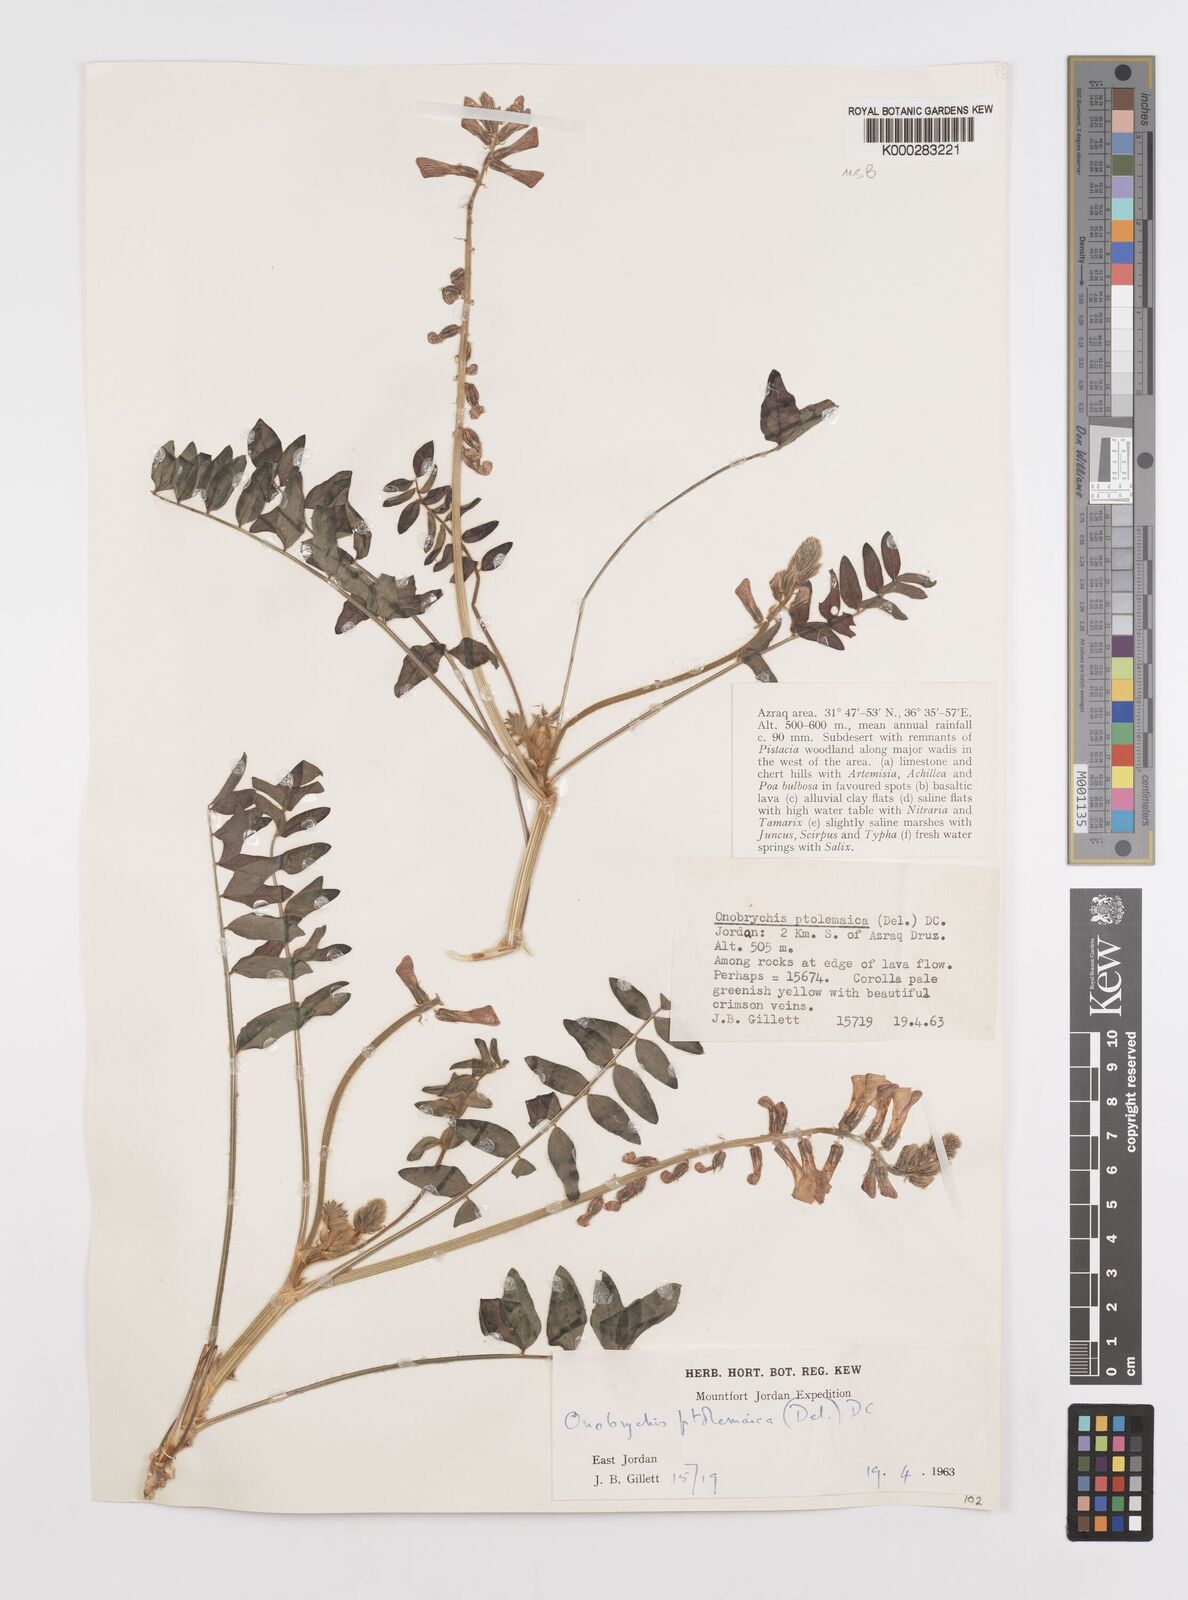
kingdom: Plantae
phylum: Tracheophyta
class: Magnoliopsida
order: Fabales
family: Fabaceae
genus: Onobrychis
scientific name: Onobrychis ptolemaica
